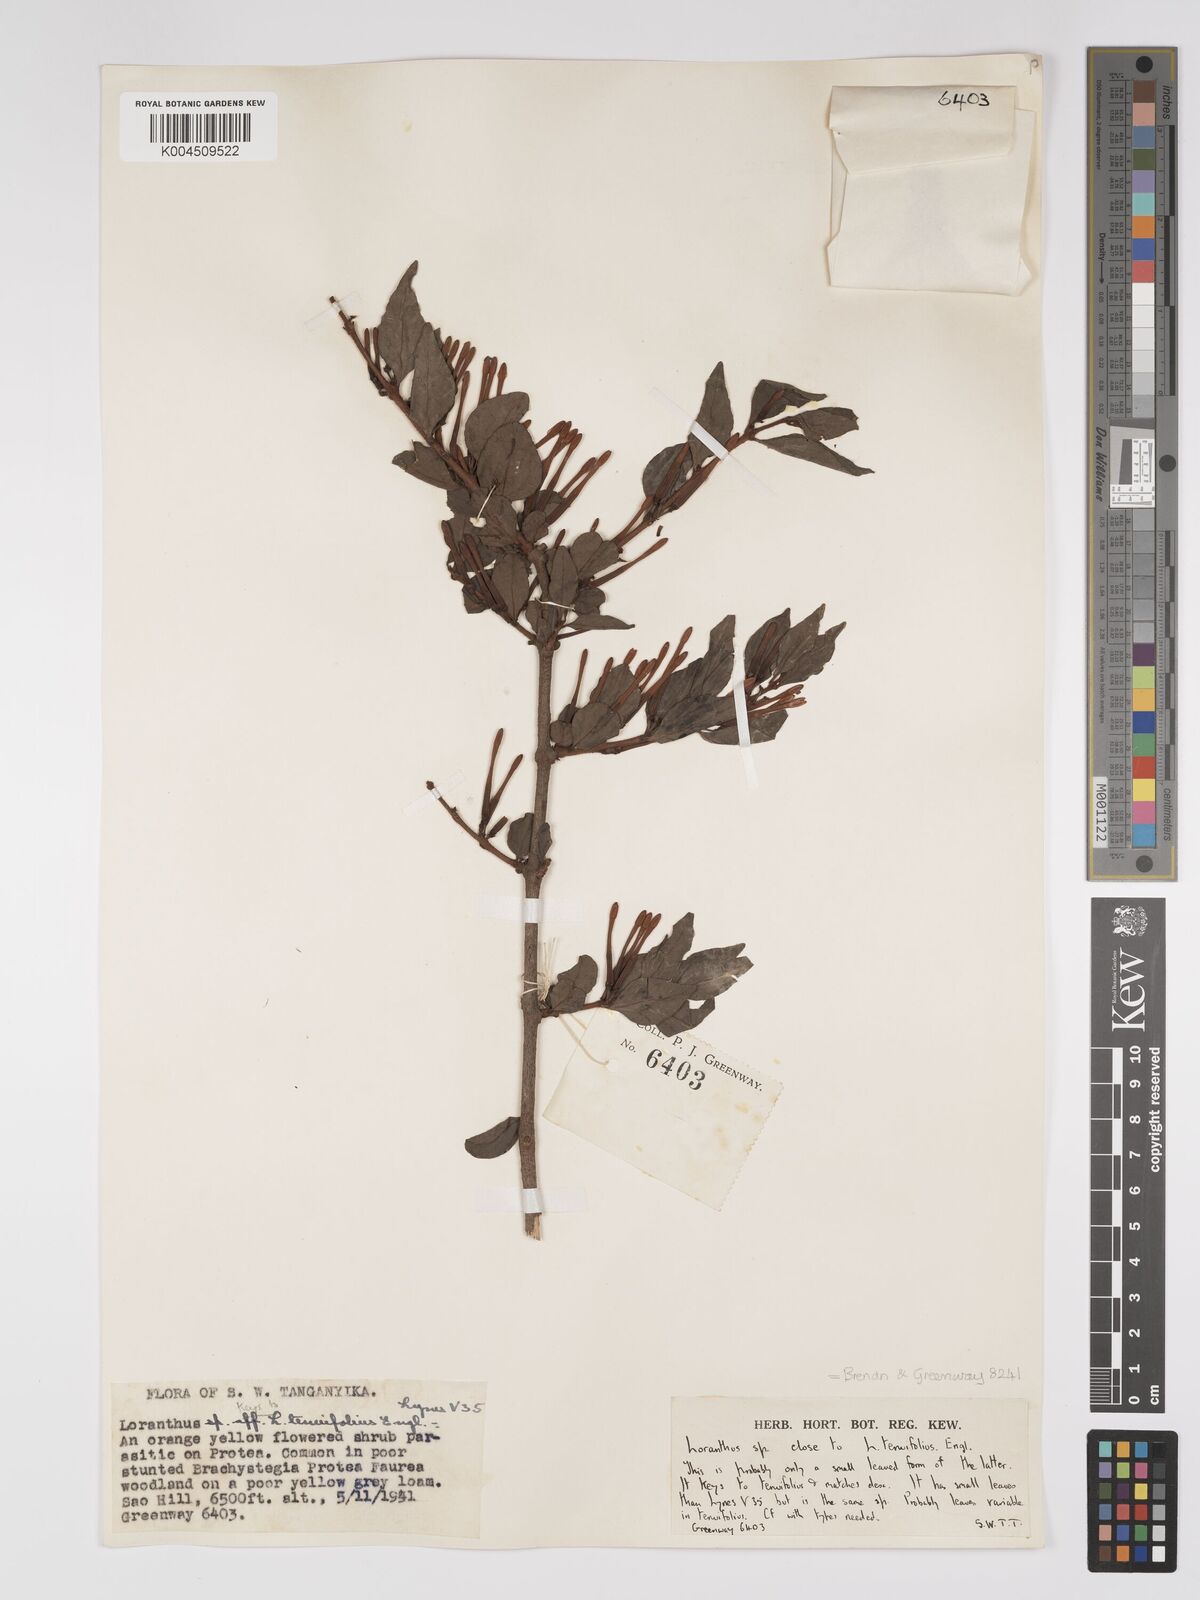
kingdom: Plantae
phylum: Tracheophyta
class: Magnoliopsida
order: Santalales
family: Loranthaceae
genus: Englerina
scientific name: Englerina inaequilatera
